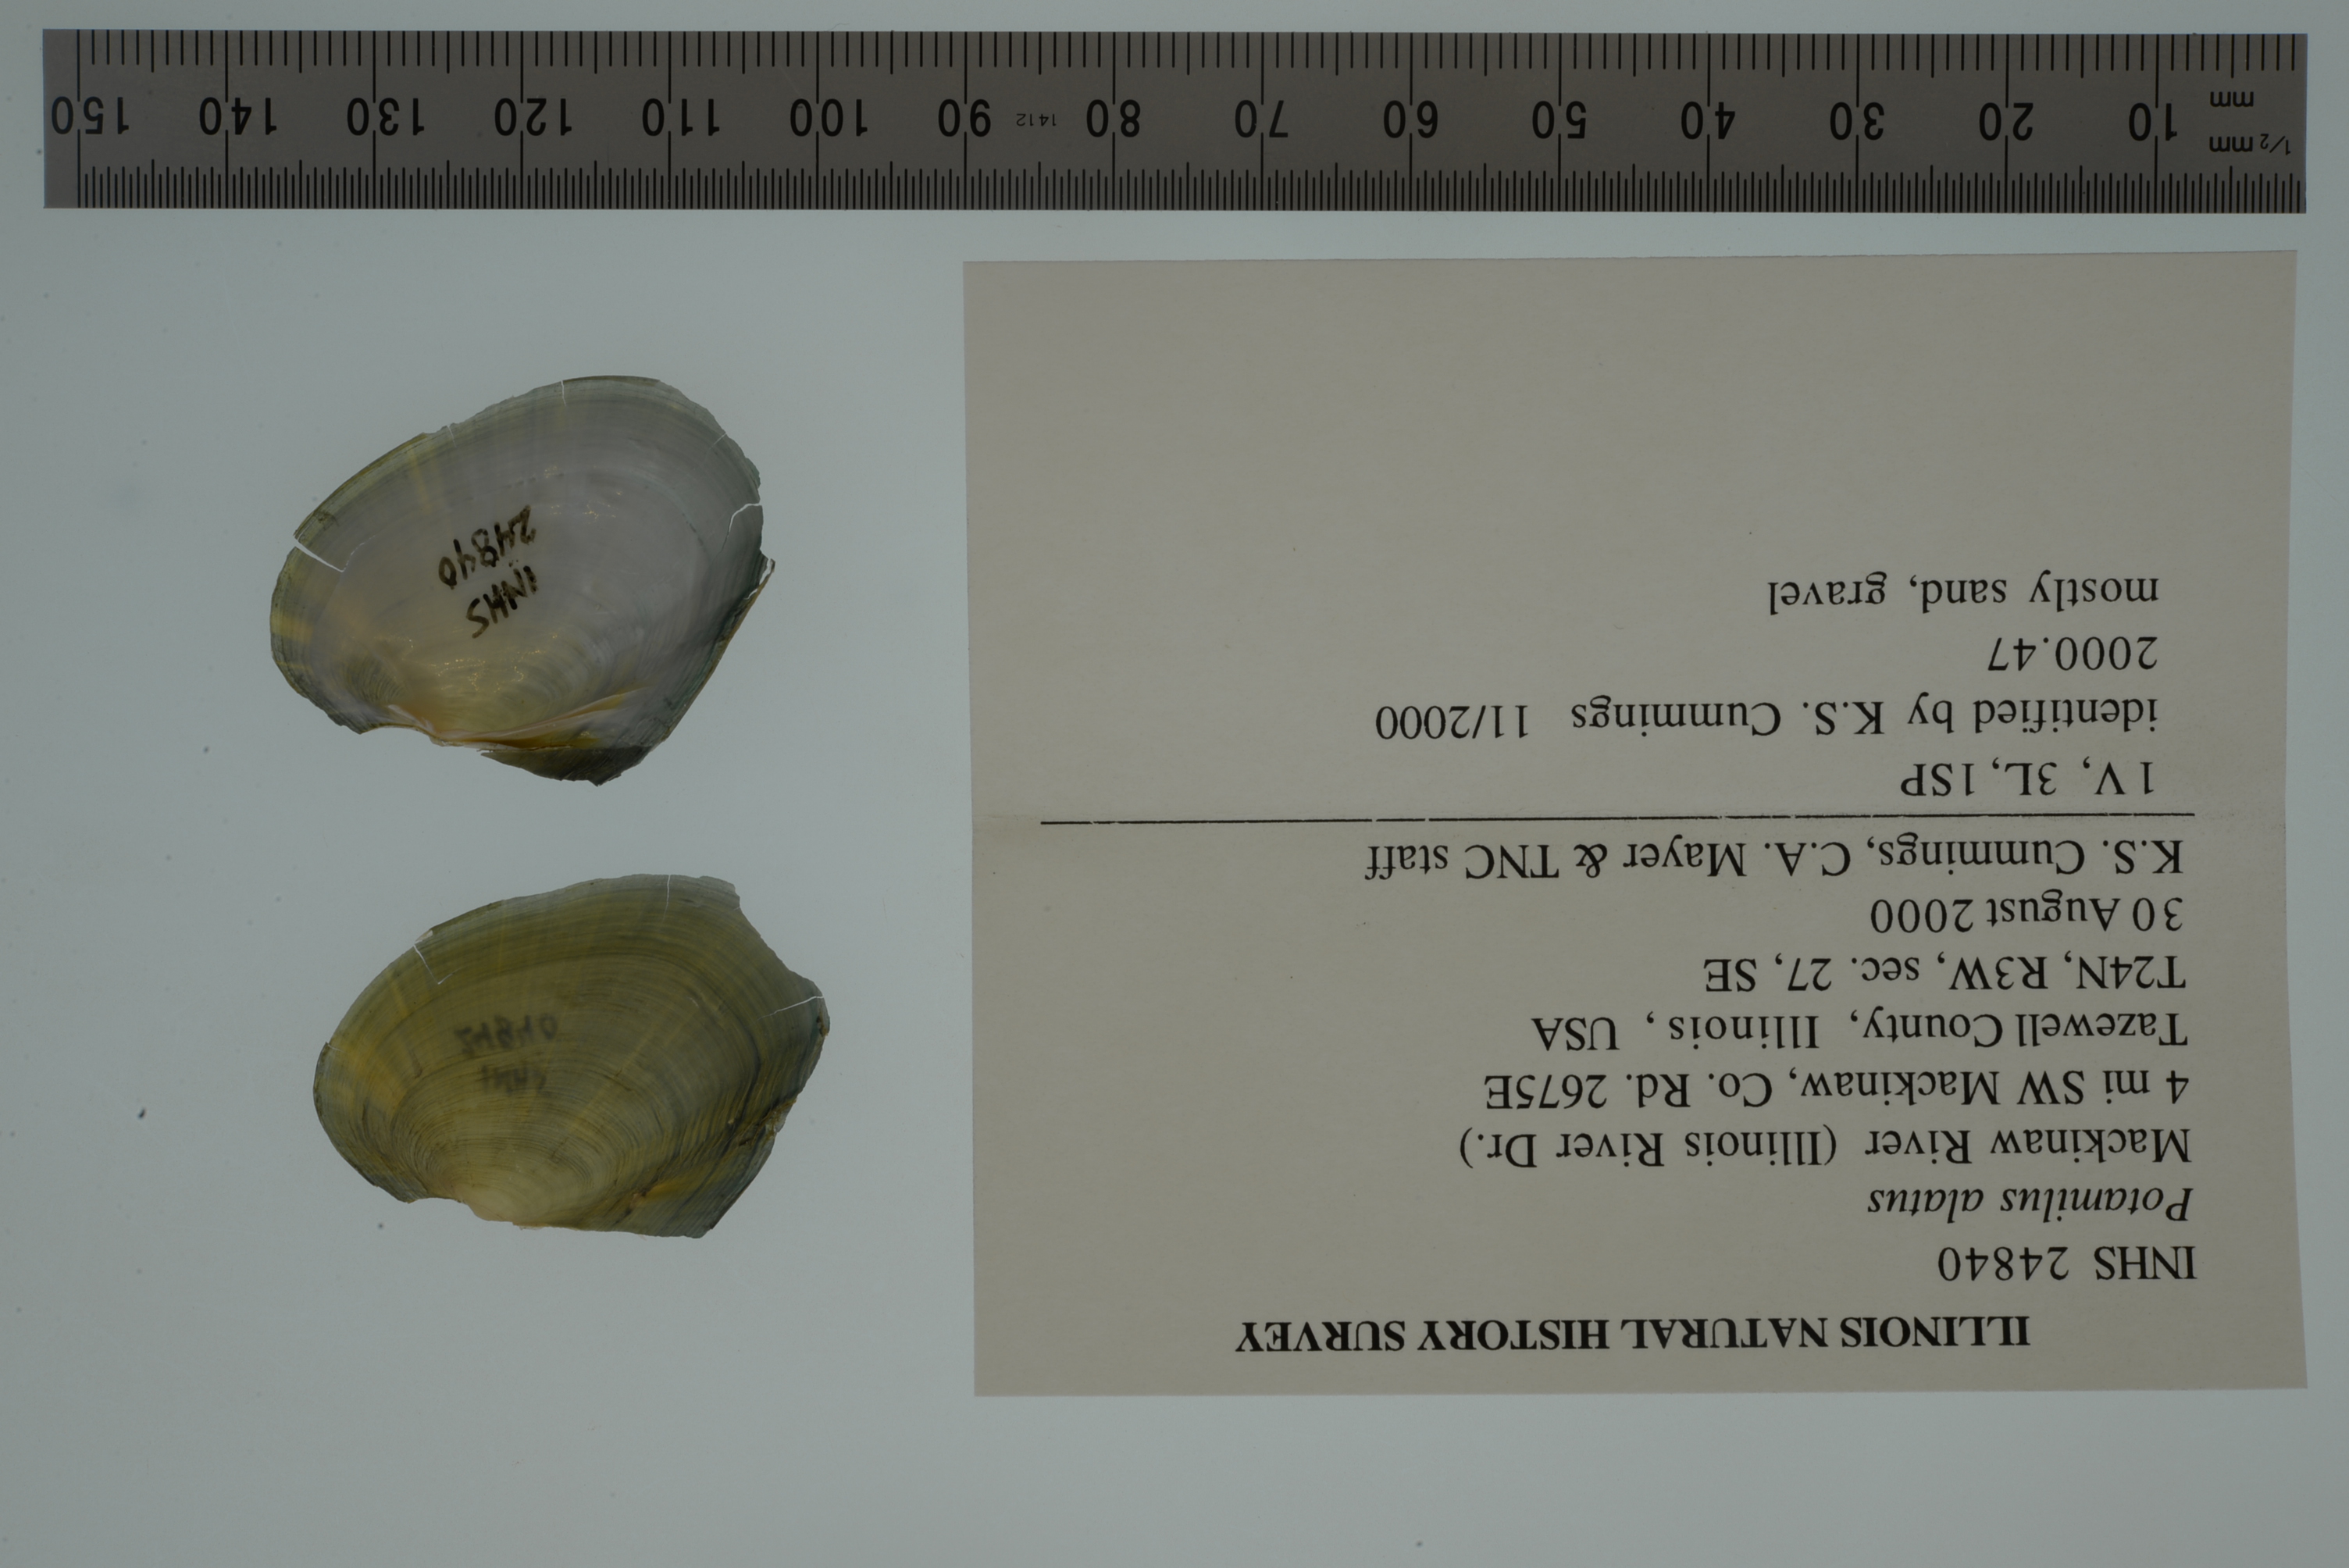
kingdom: Animalia
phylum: Mollusca
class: Bivalvia
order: Unionida
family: Unionidae
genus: Potamilus
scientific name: Potamilus alatus
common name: Pink heelsplitter
